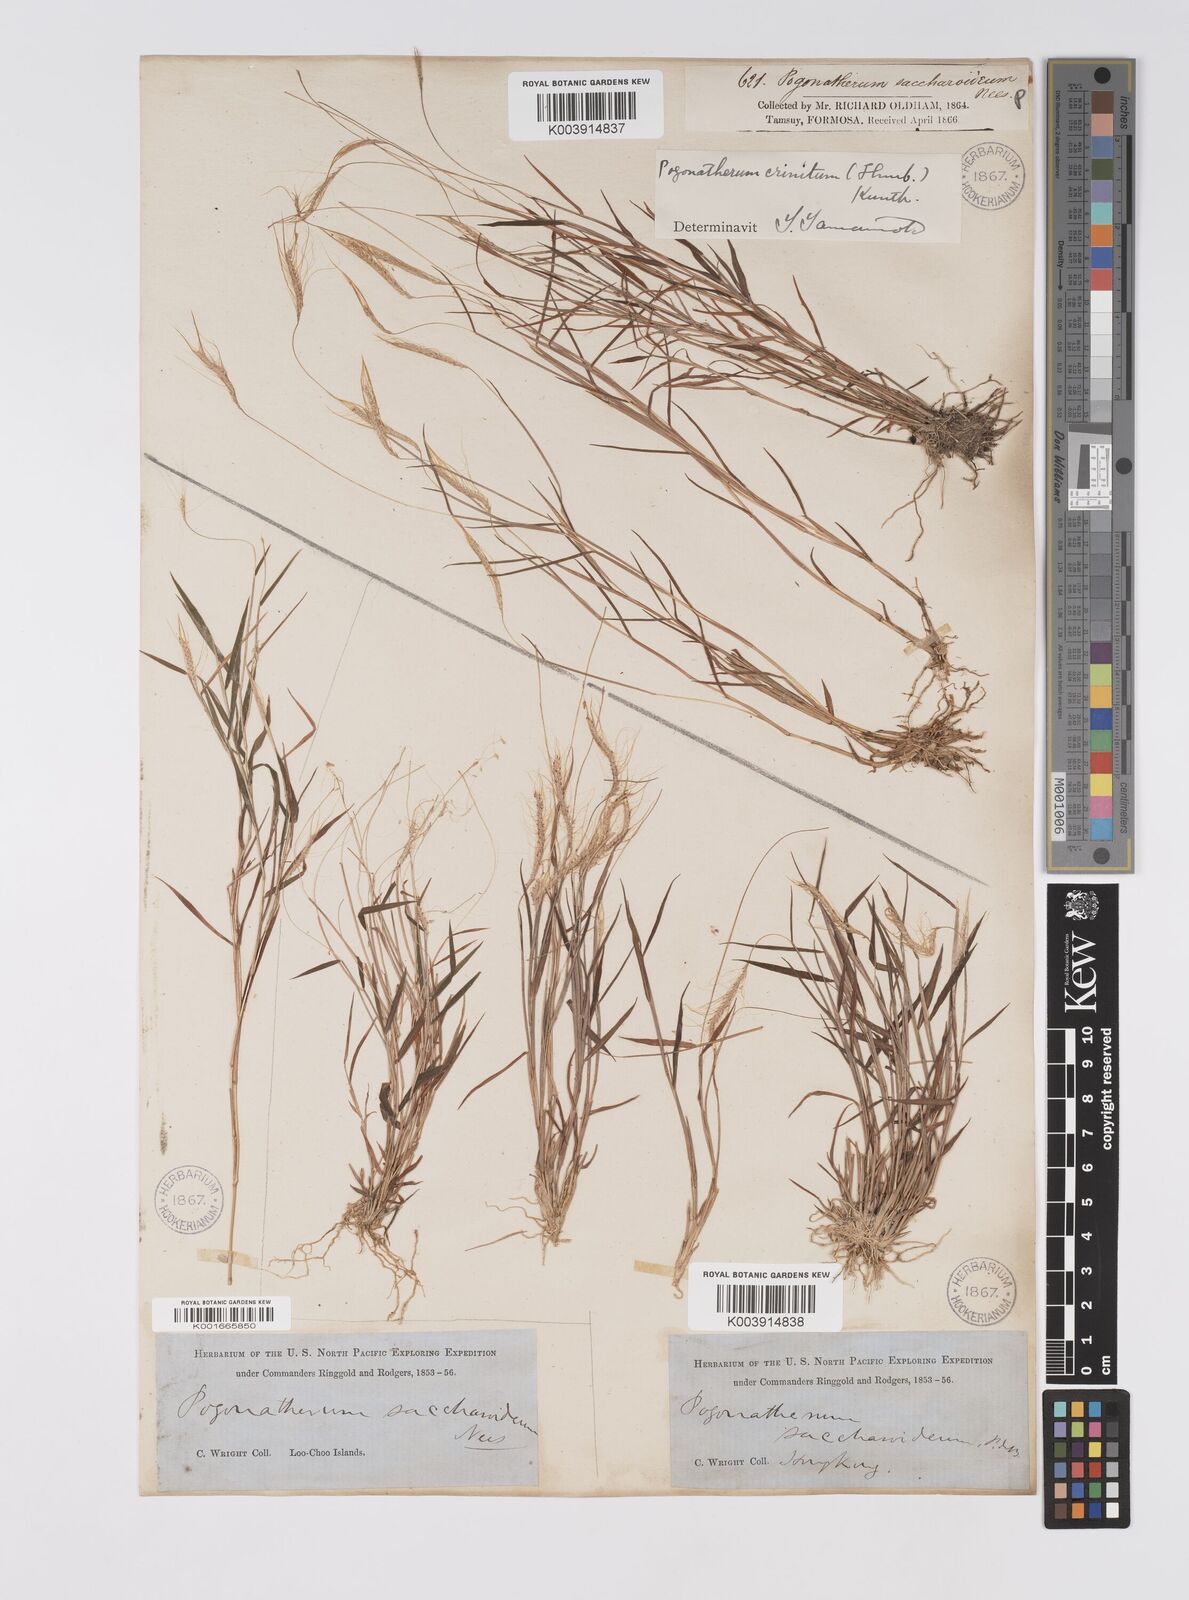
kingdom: Plantae
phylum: Tracheophyta
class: Liliopsida
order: Poales
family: Poaceae
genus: Pogonatherum
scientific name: Pogonatherum crinitum
